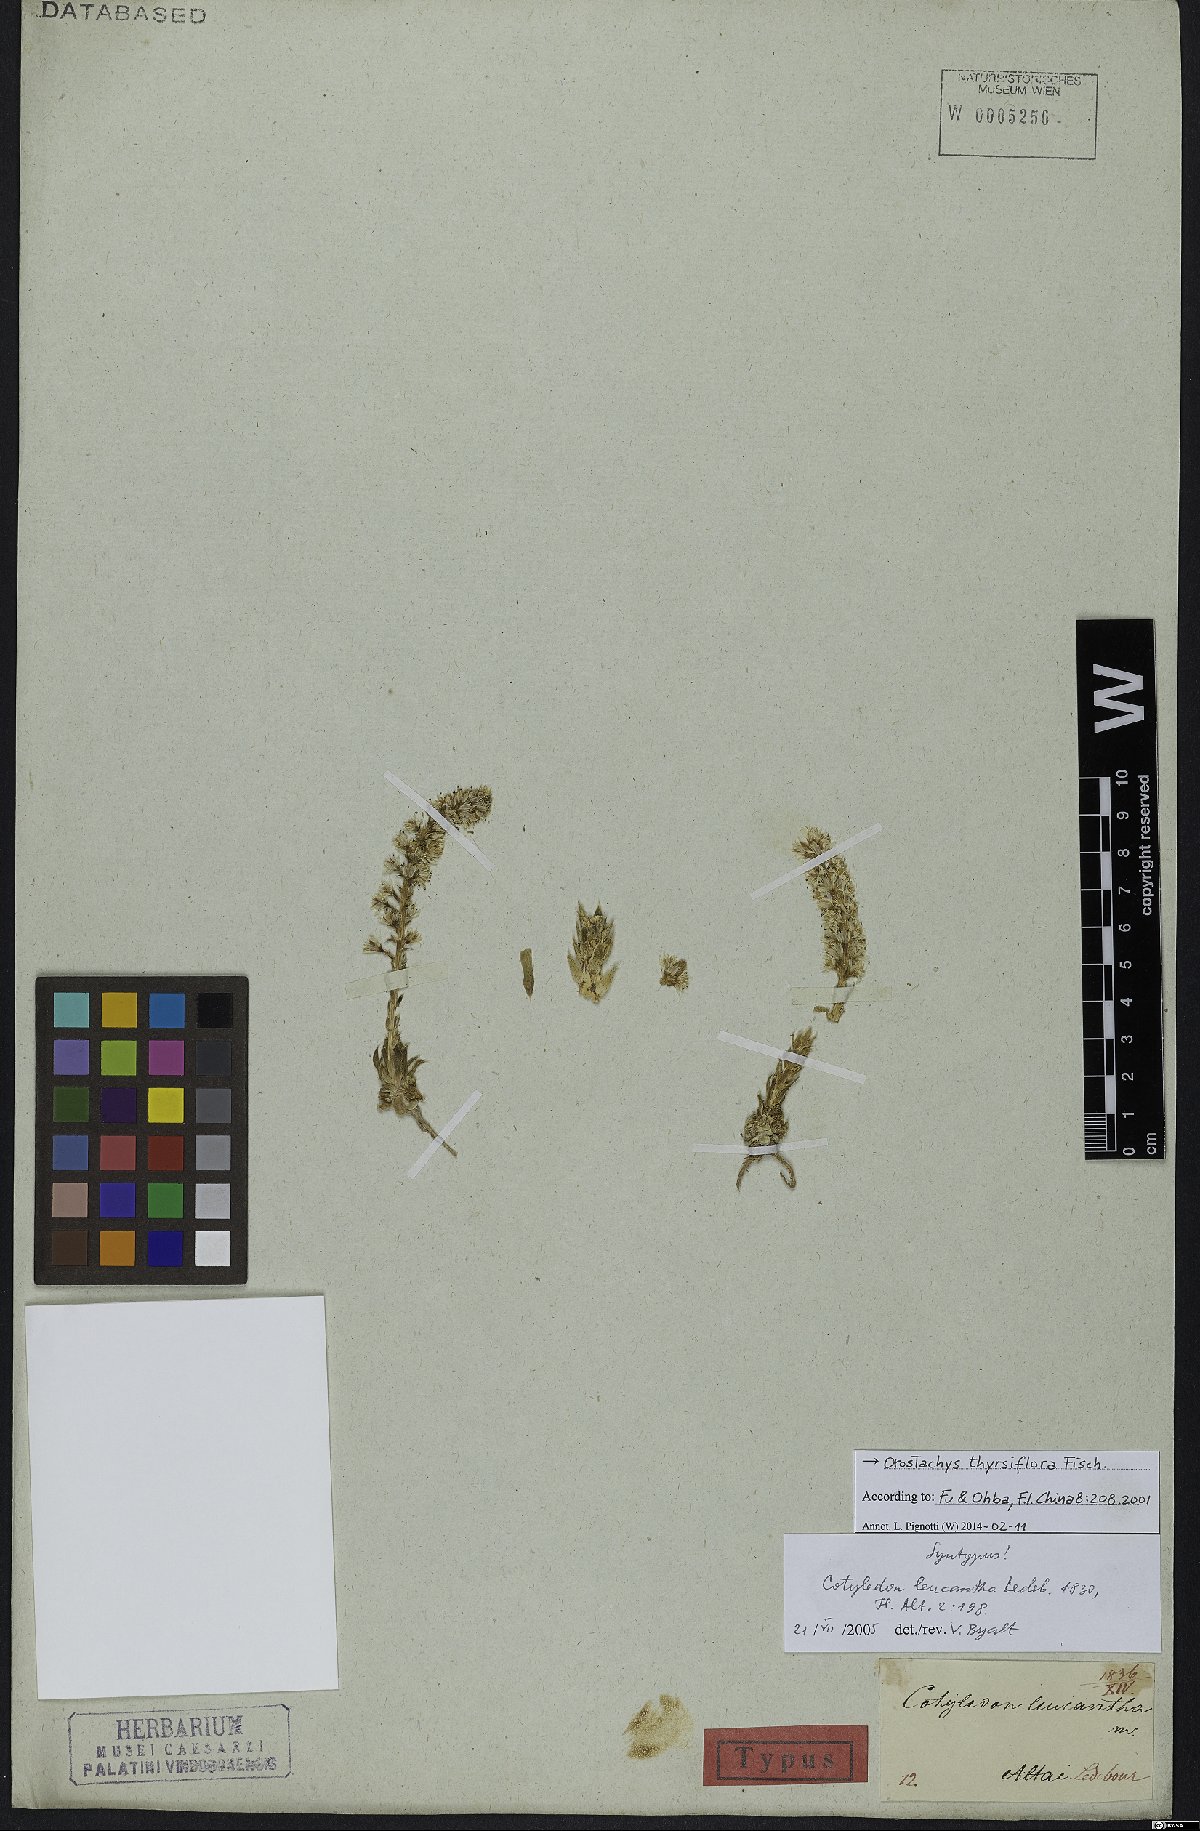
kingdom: Plantae
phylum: Tracheophyta
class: Magnoliopsida
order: Saxifragales
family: Crassulaceae
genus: Orostachys
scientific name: Orostachys thyrsiflora
